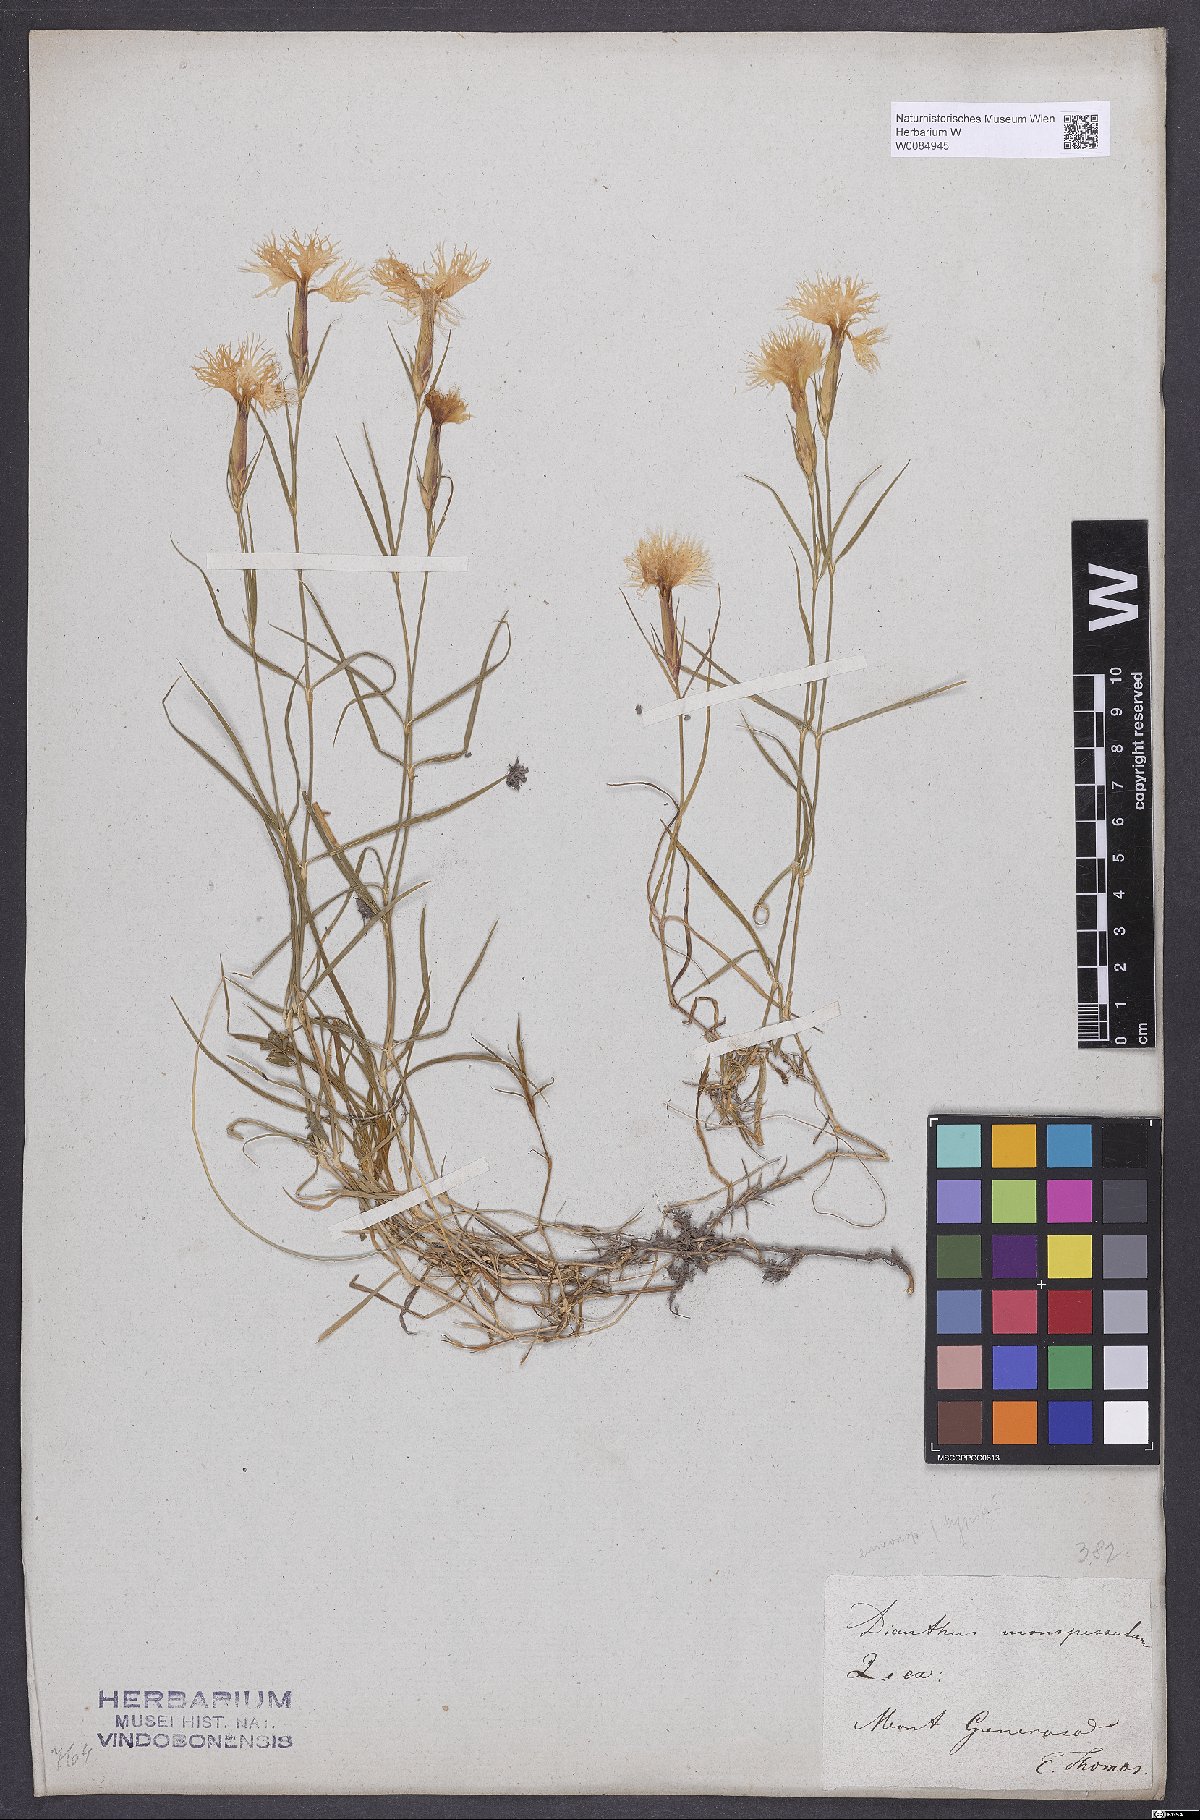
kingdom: Plantae
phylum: Tracheophyta
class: Magnoliopsida
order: Caryophyllales
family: Caryophyllaceae
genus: Dianthus
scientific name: Dianthus hyssopifolius
